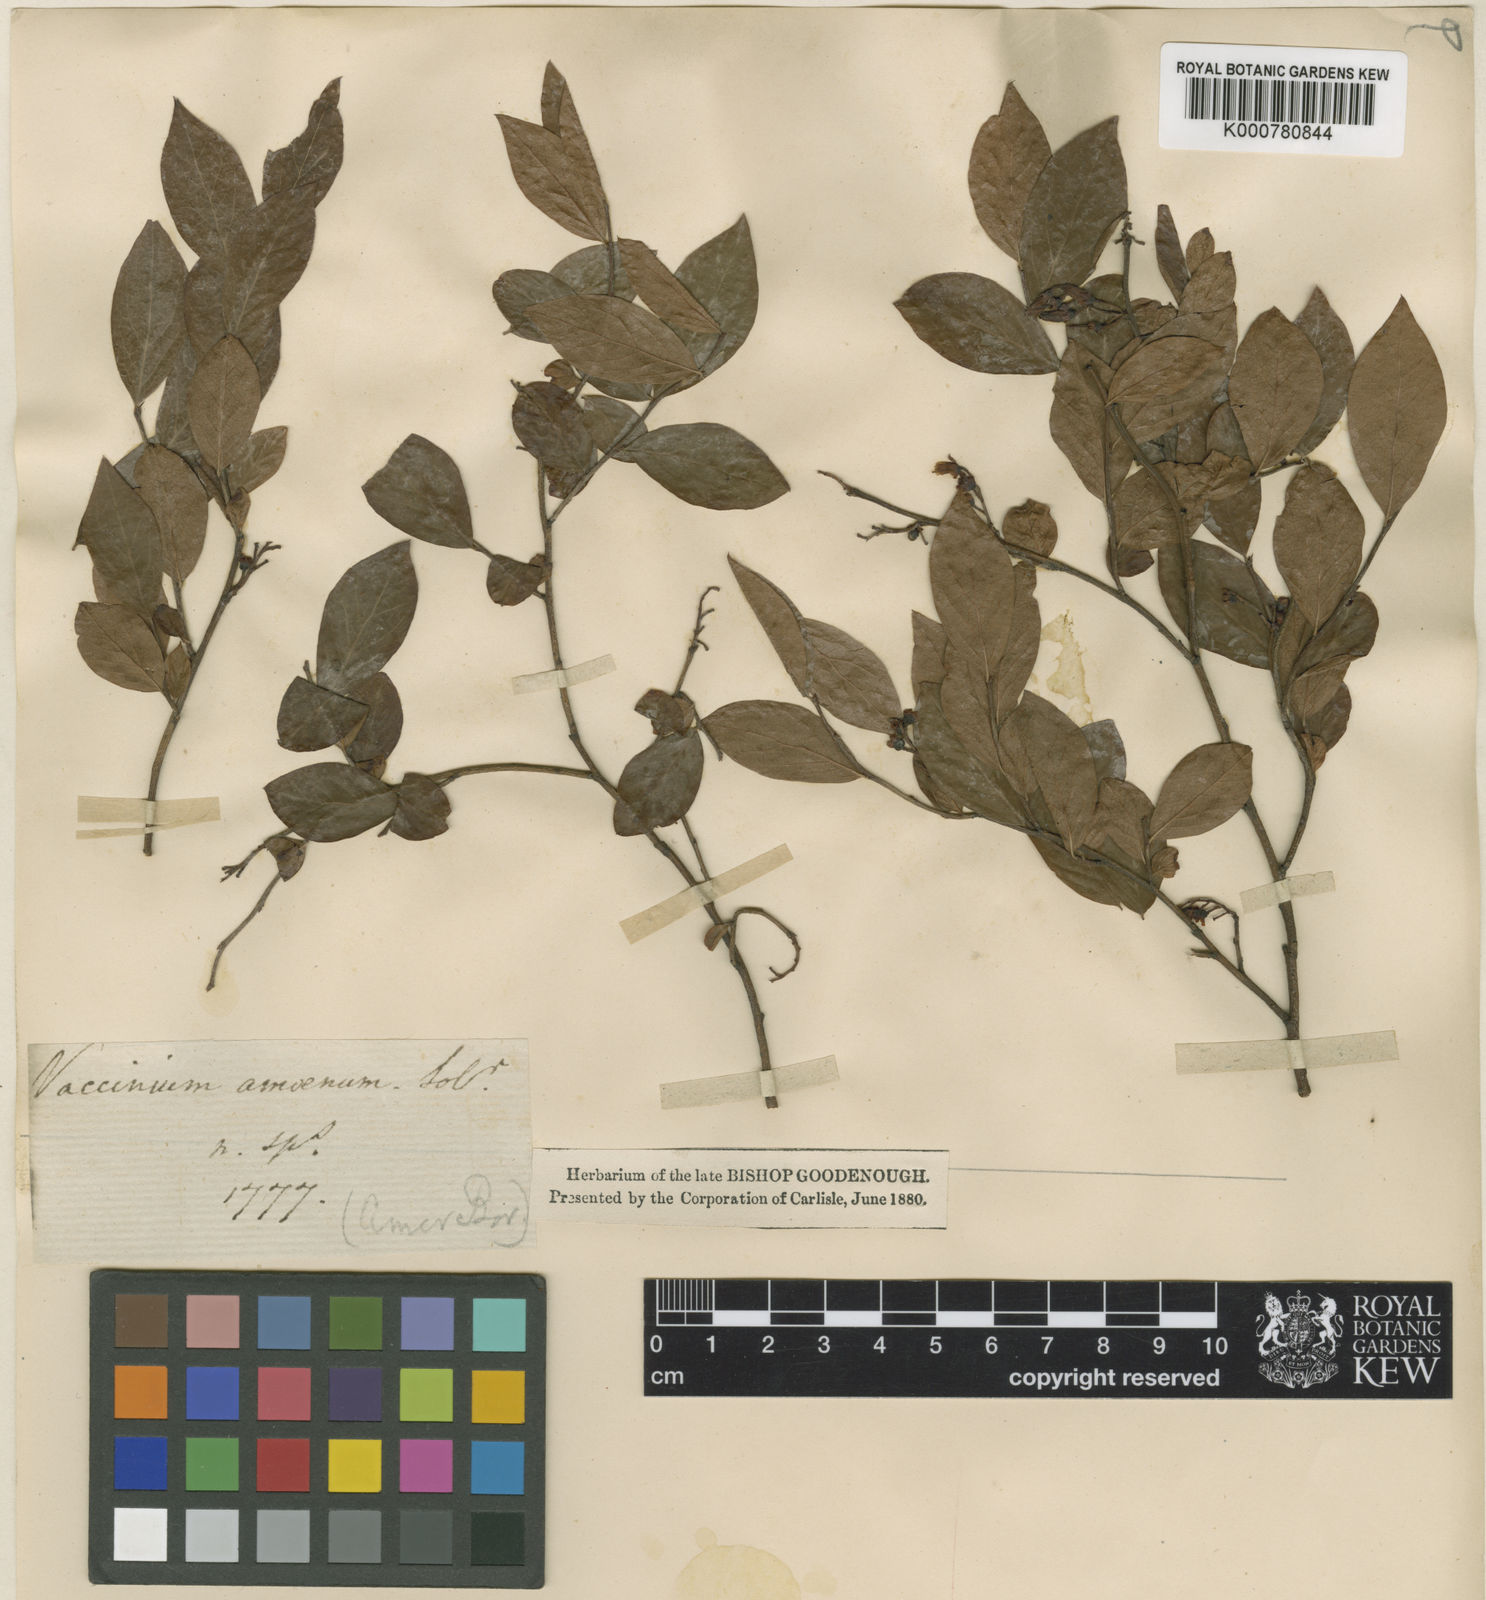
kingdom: Plantae
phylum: Tracheophyta
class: Magnoliopsida
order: Ericales
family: Ericaceae
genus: Vaccinium
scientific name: Vaccinium corymbosum
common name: Blueberry
